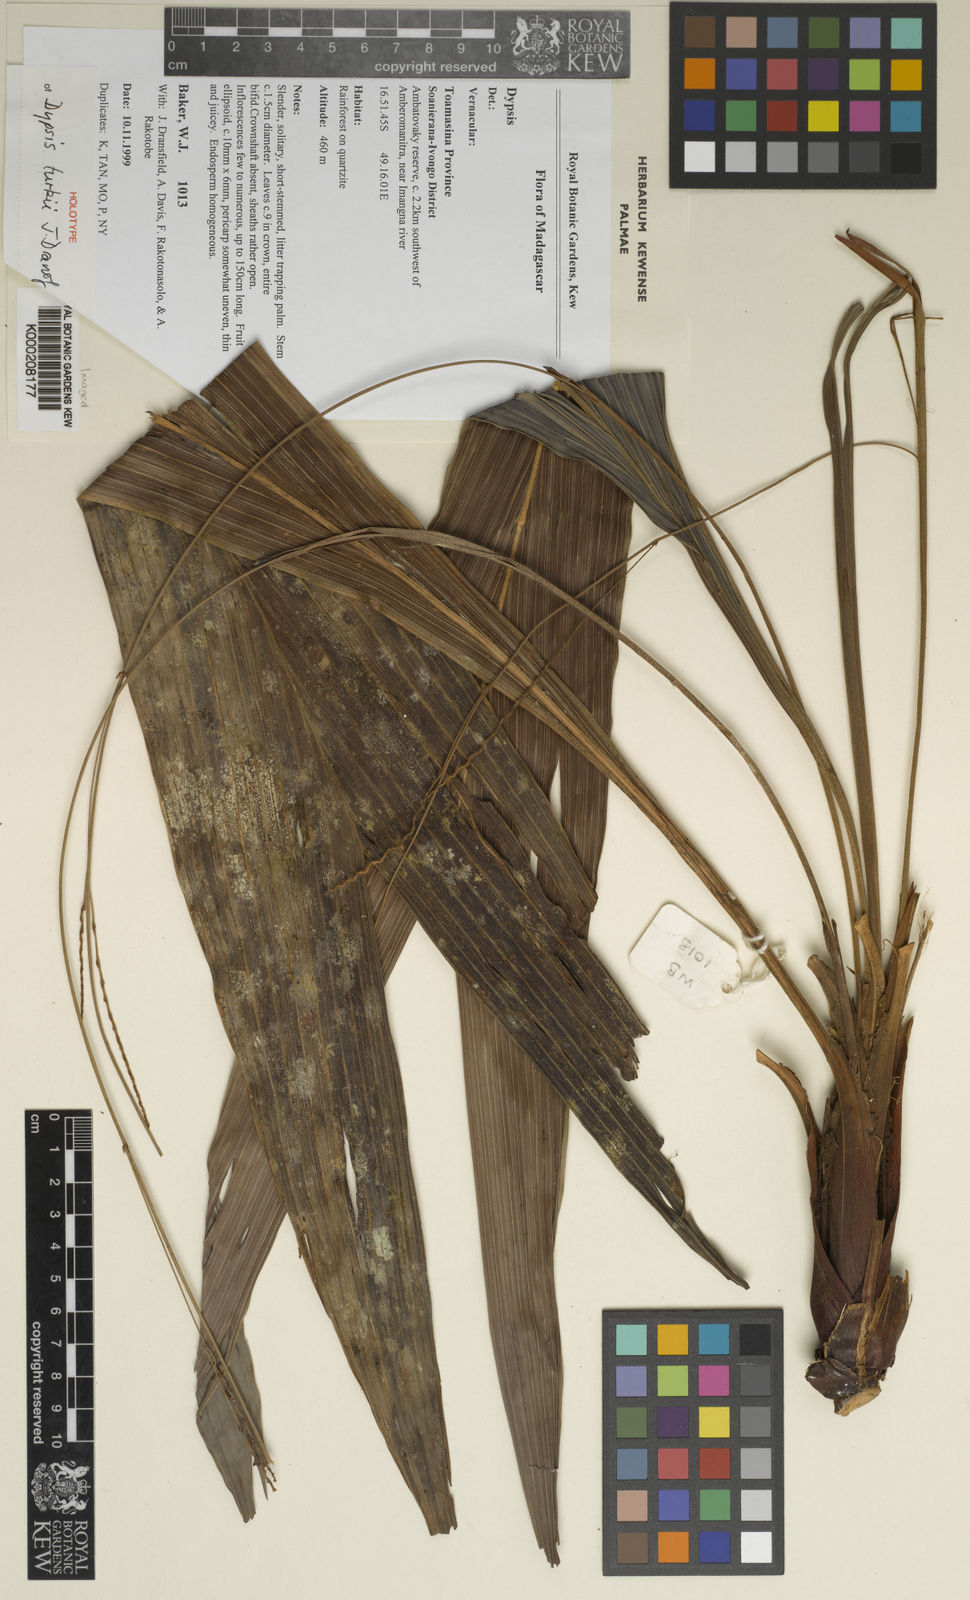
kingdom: Plantae
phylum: Tracheophyta
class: Liliopsida
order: Arecales
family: Arecaceae
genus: Dypsis
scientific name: Dypsis turkii
